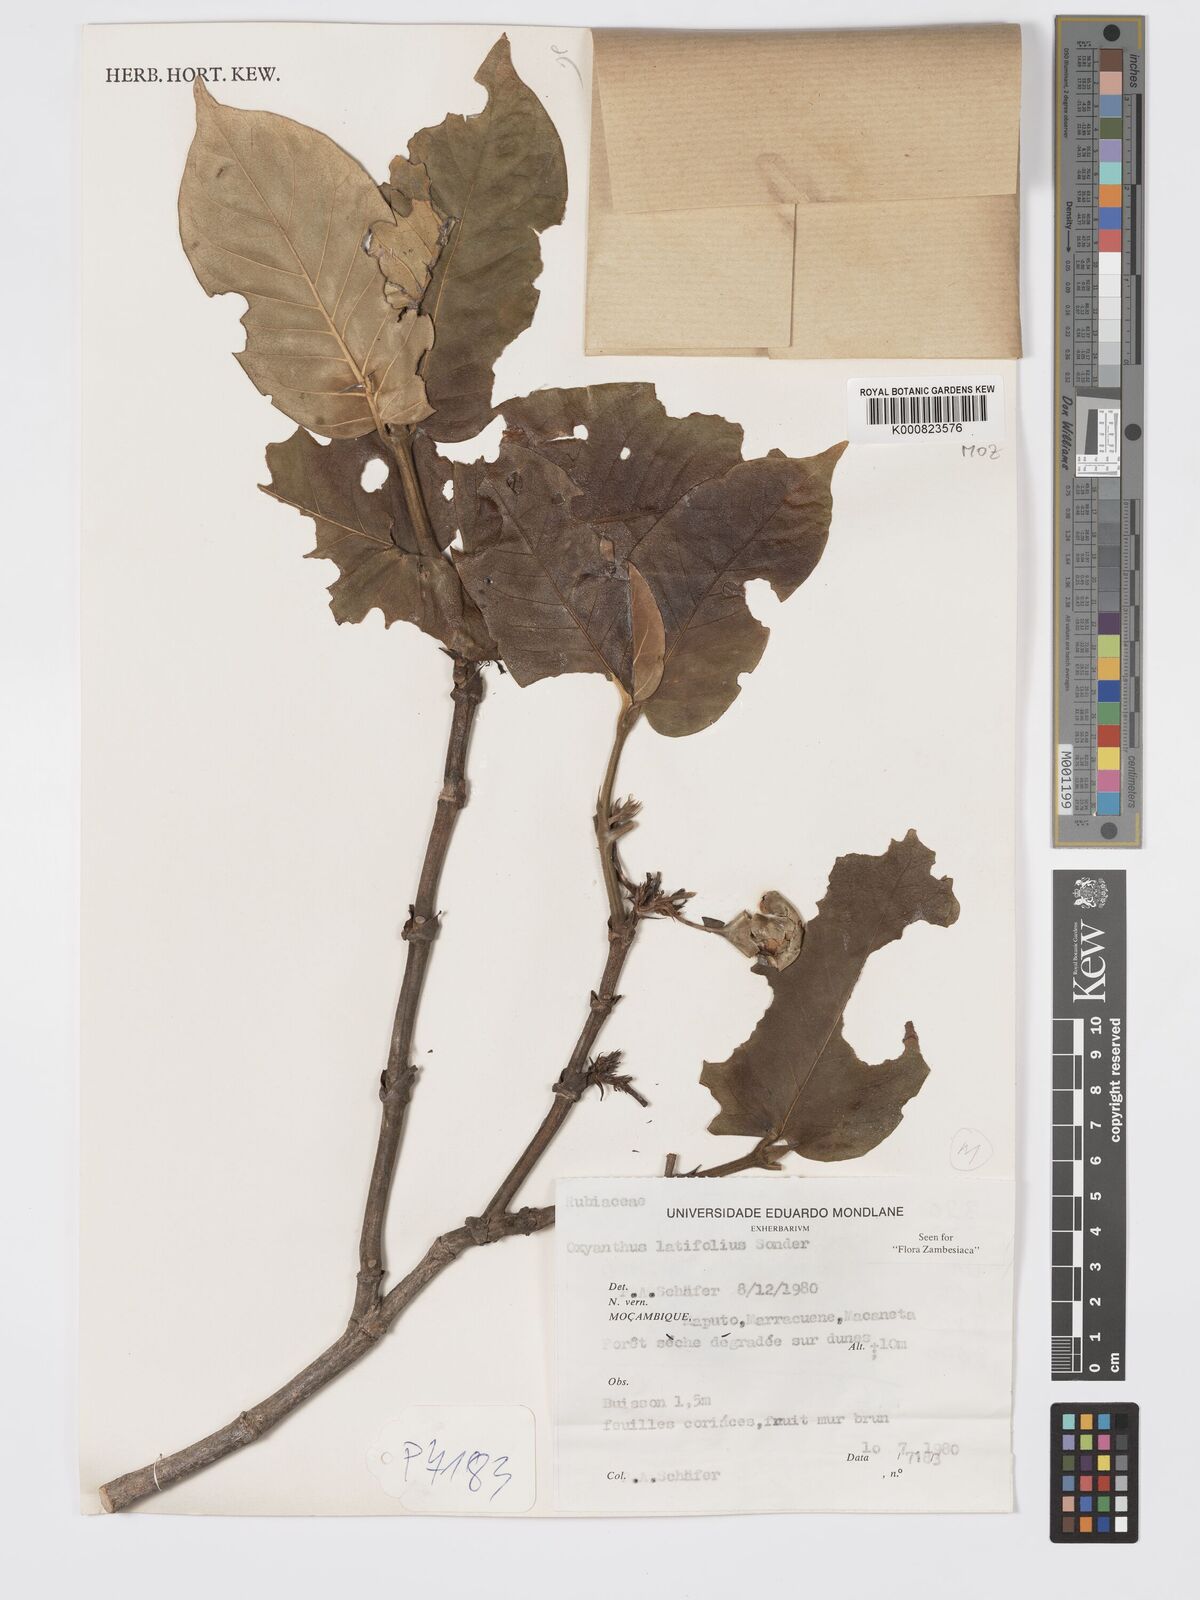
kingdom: Plantae
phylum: Tracheophyta
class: Magnoliopsida
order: Gentianales
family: Rubiaceae
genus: Oxyanthus
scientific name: Oxyanthus latifolius
